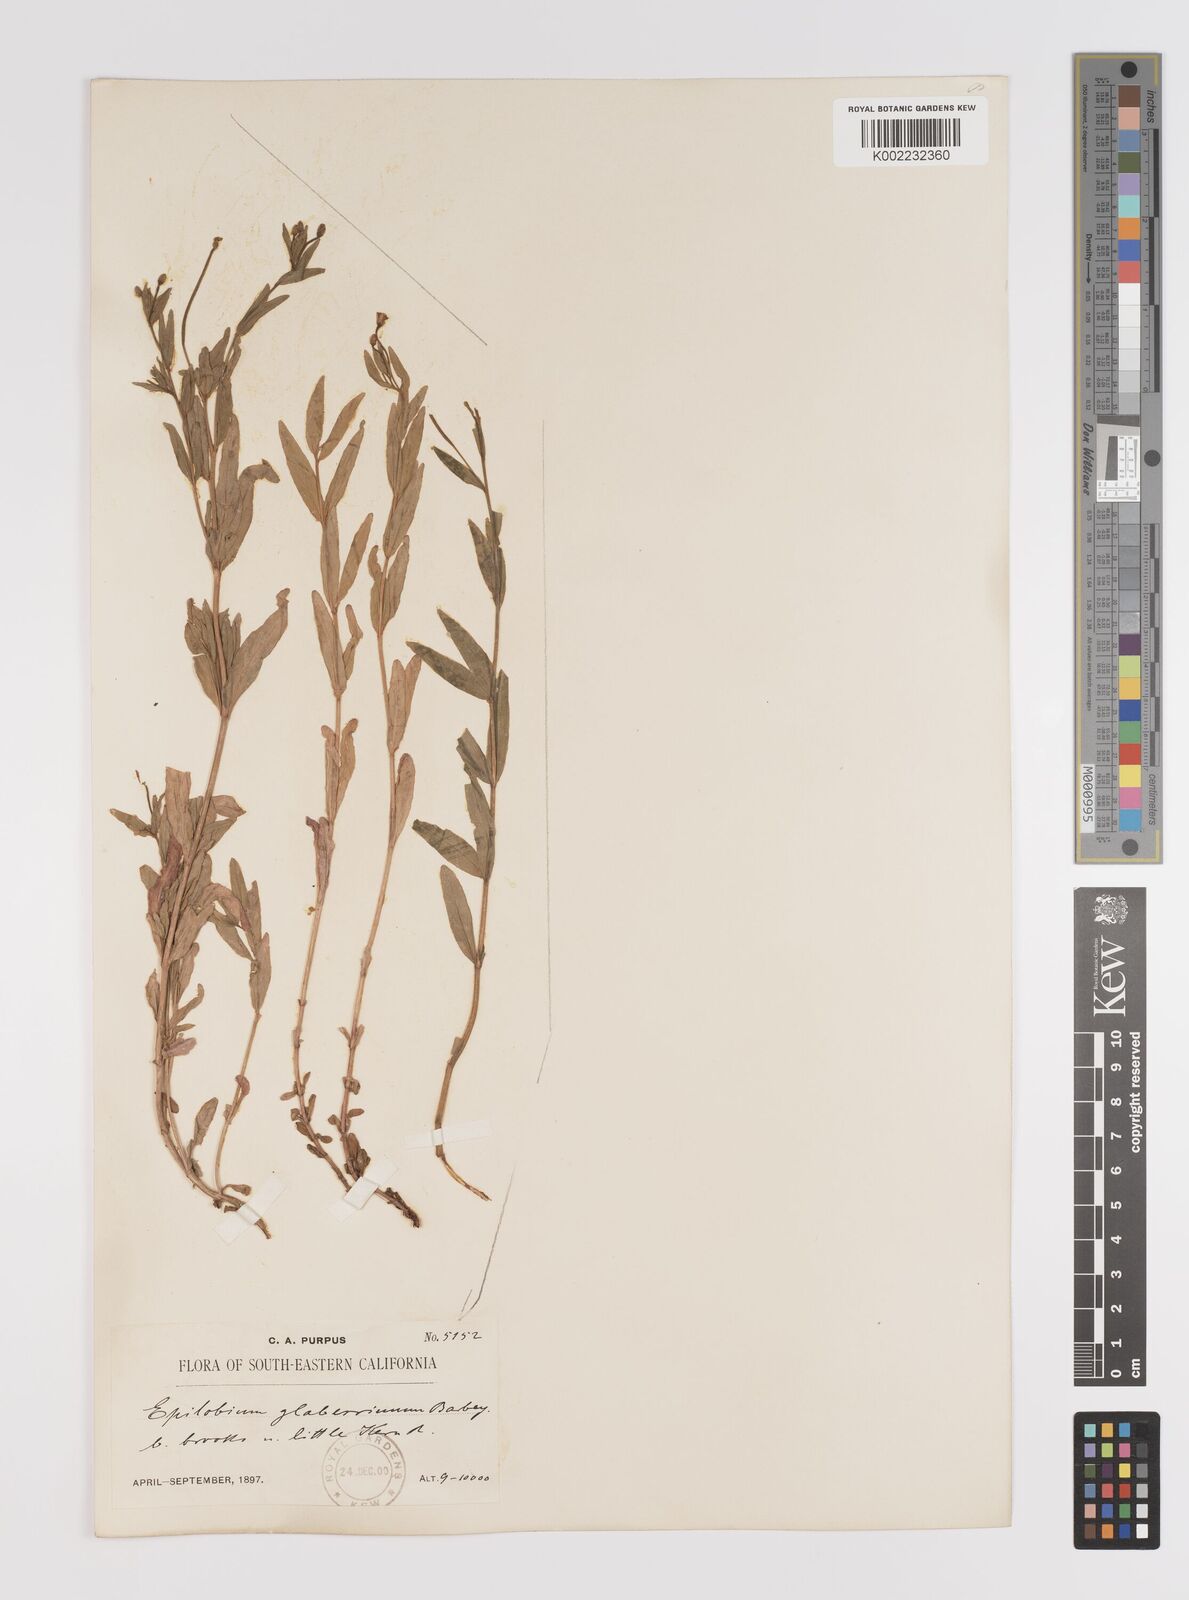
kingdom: Plantae
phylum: Tracheophyta
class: Magnoliopsida
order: Myrtales
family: Onagraceae
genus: Epilobium
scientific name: Epilobium glaberrimum
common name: Glaucous willowherb
